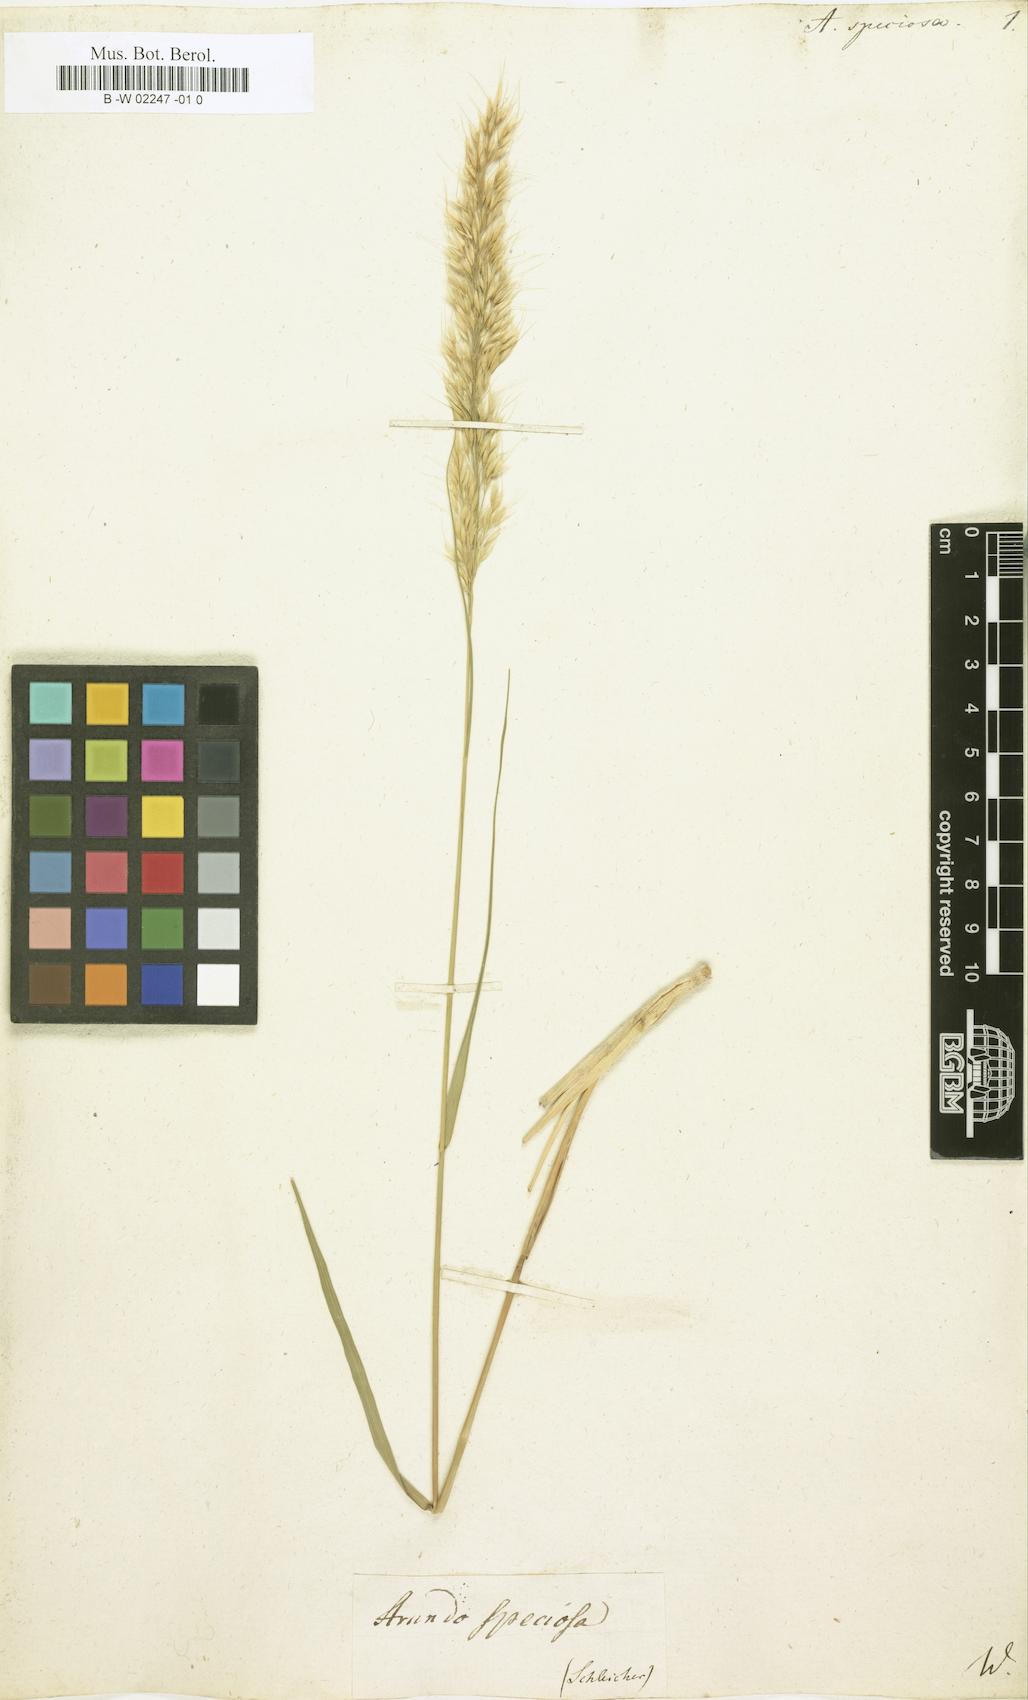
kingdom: Plantae
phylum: Tracheophyta
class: Liliopsida
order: Poales
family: Poaceae
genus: Achnatherum
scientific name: Achnatherum calamagrostis
